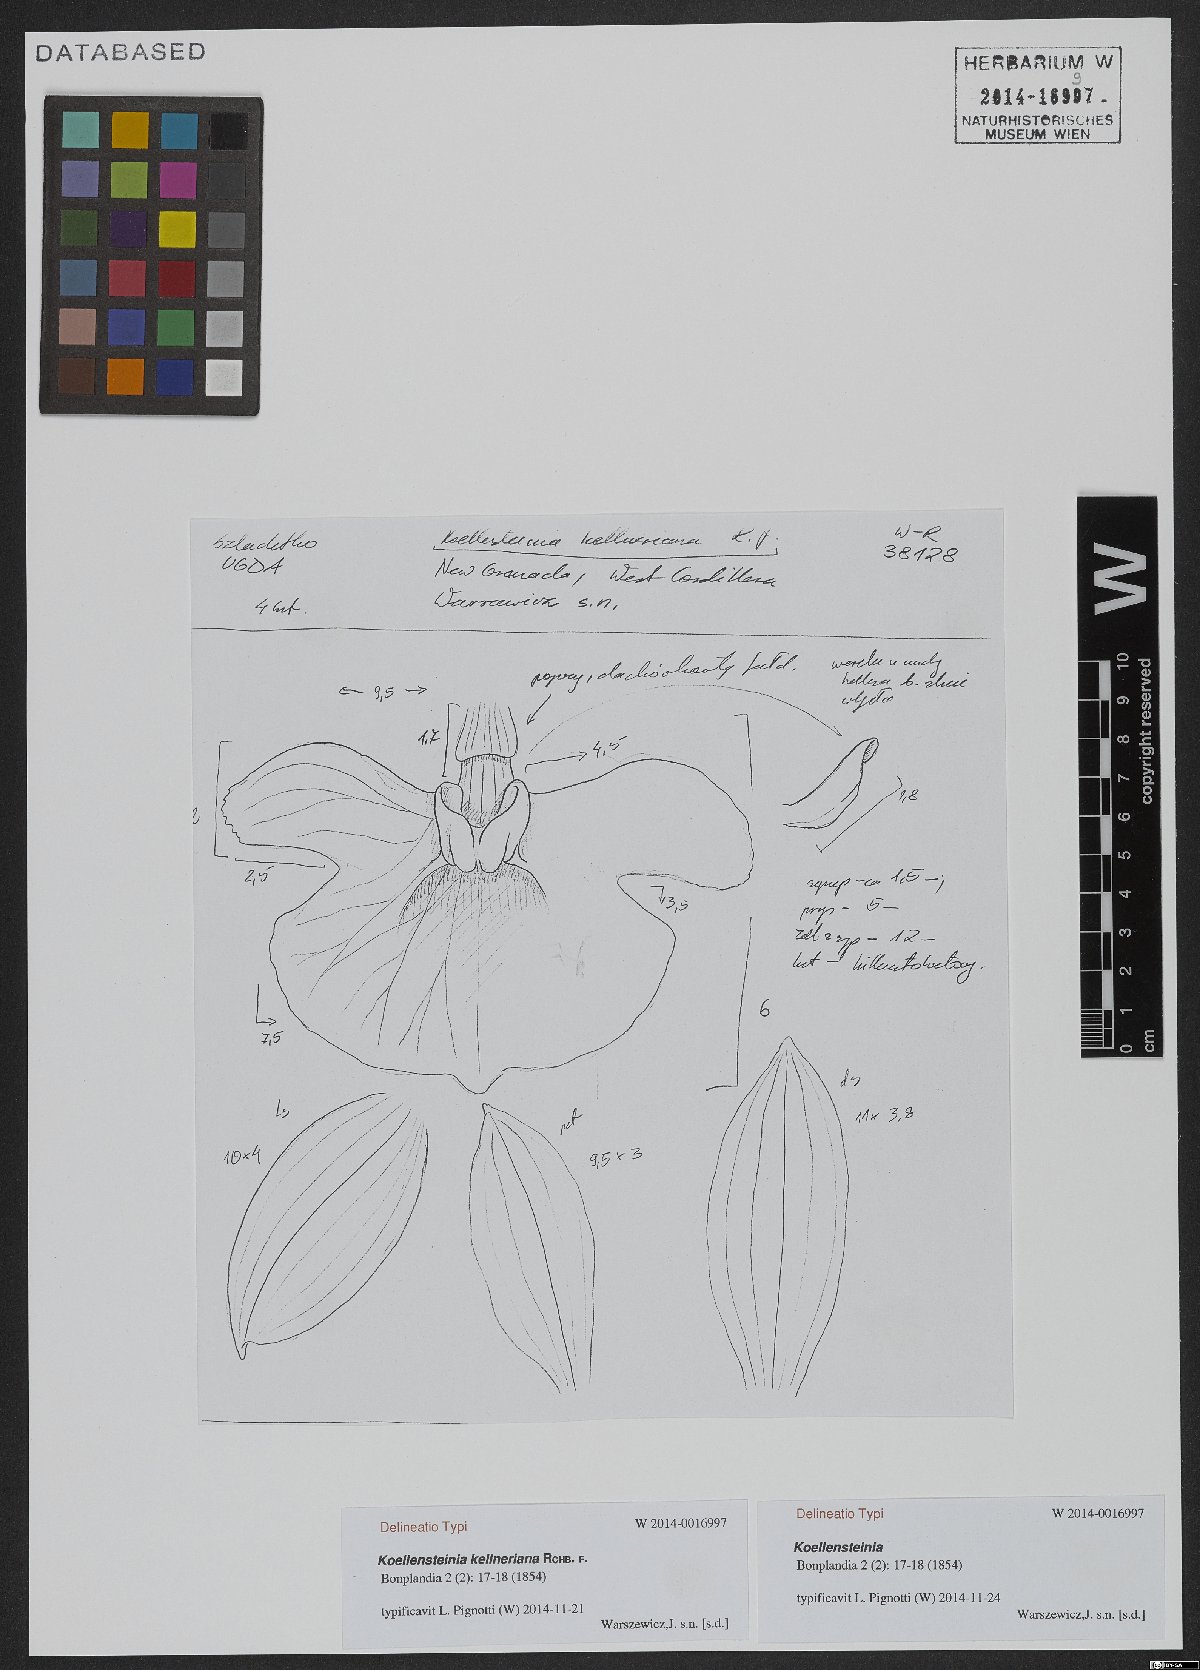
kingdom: Plantae
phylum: Tracheophyta
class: Liliopsida
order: Asparagales
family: Orchidaceae
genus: Koellensteinia
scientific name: Koellensteinia kellneriana
